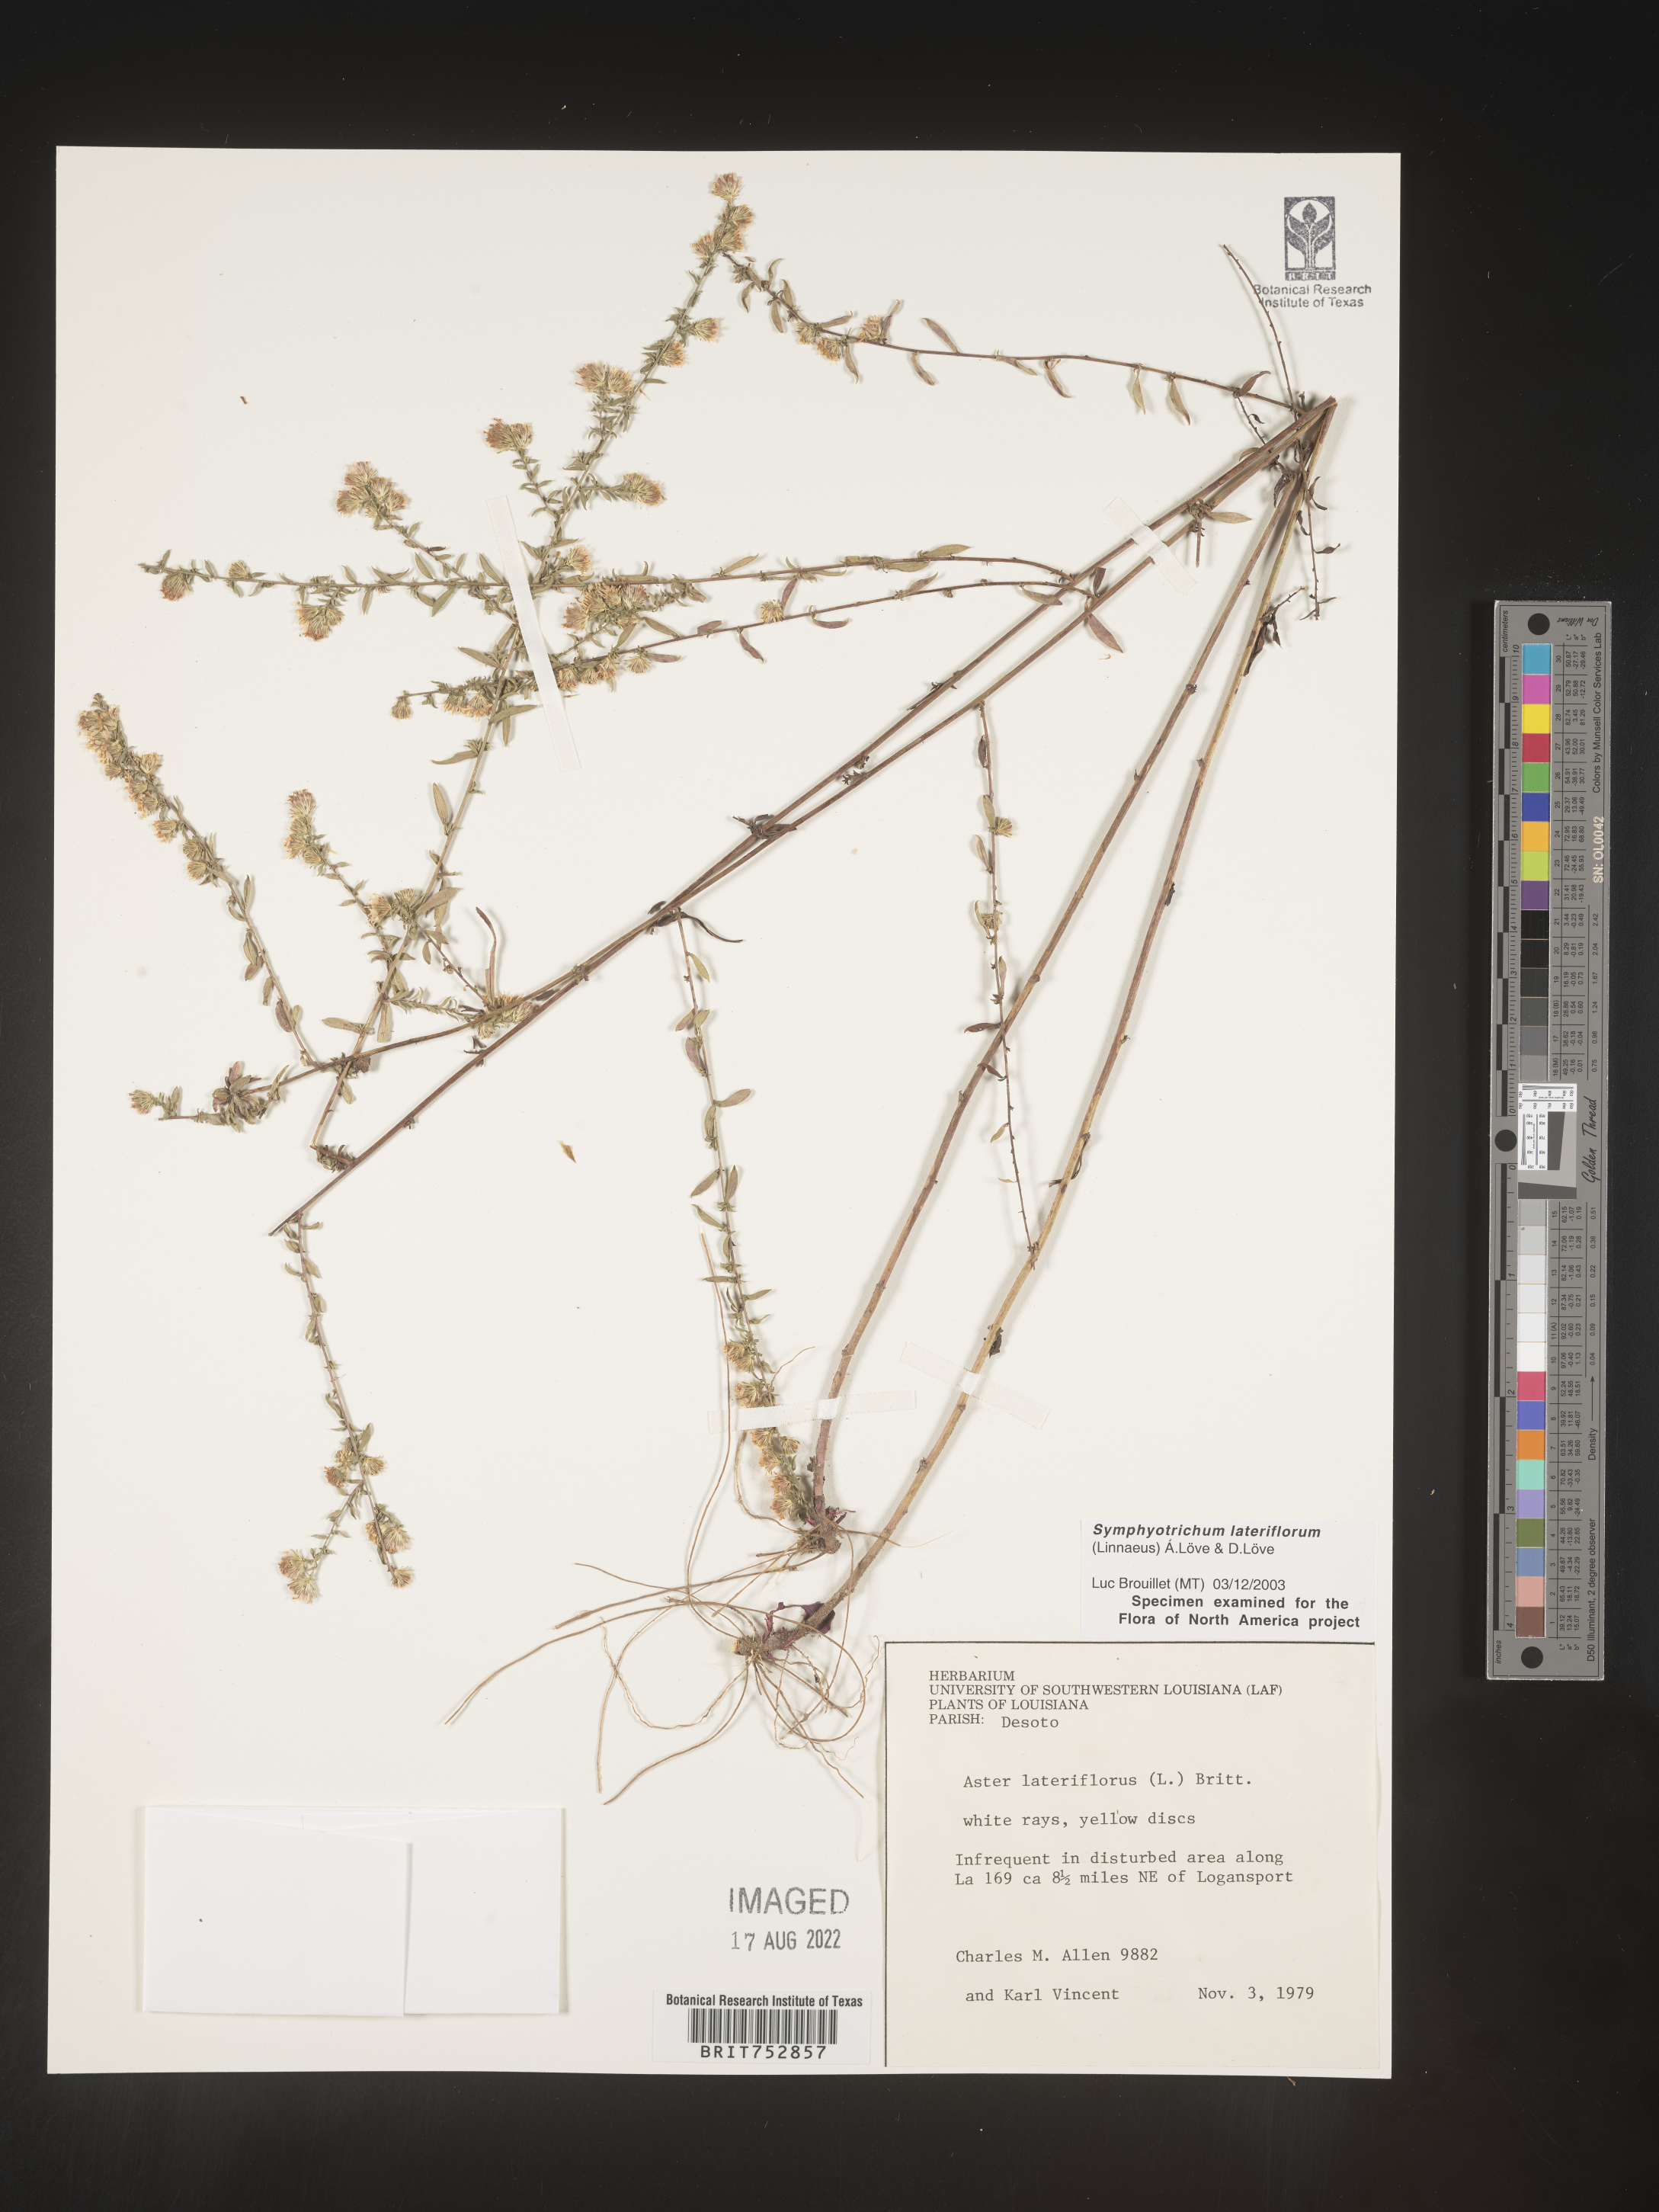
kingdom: Plantae
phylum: Tracheophyta
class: Magnoliopsida
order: Asterales
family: Asteraceae
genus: Symphyotrichum
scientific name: Symphyotrichum lateriflorum
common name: Calico aster
